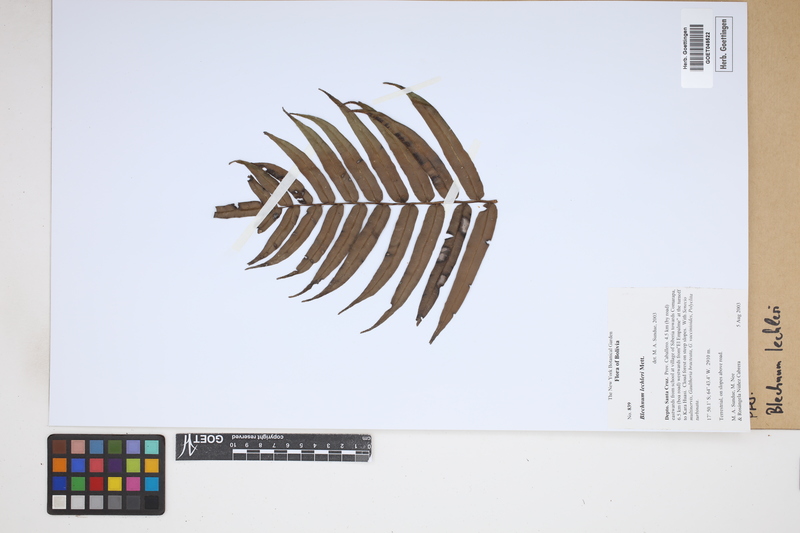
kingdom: Plantae
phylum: Tracheophyta
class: Polypodiopsida
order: Polypodiales
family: Blechnaceae
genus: Parablechnum
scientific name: Parablechnum lechleri
